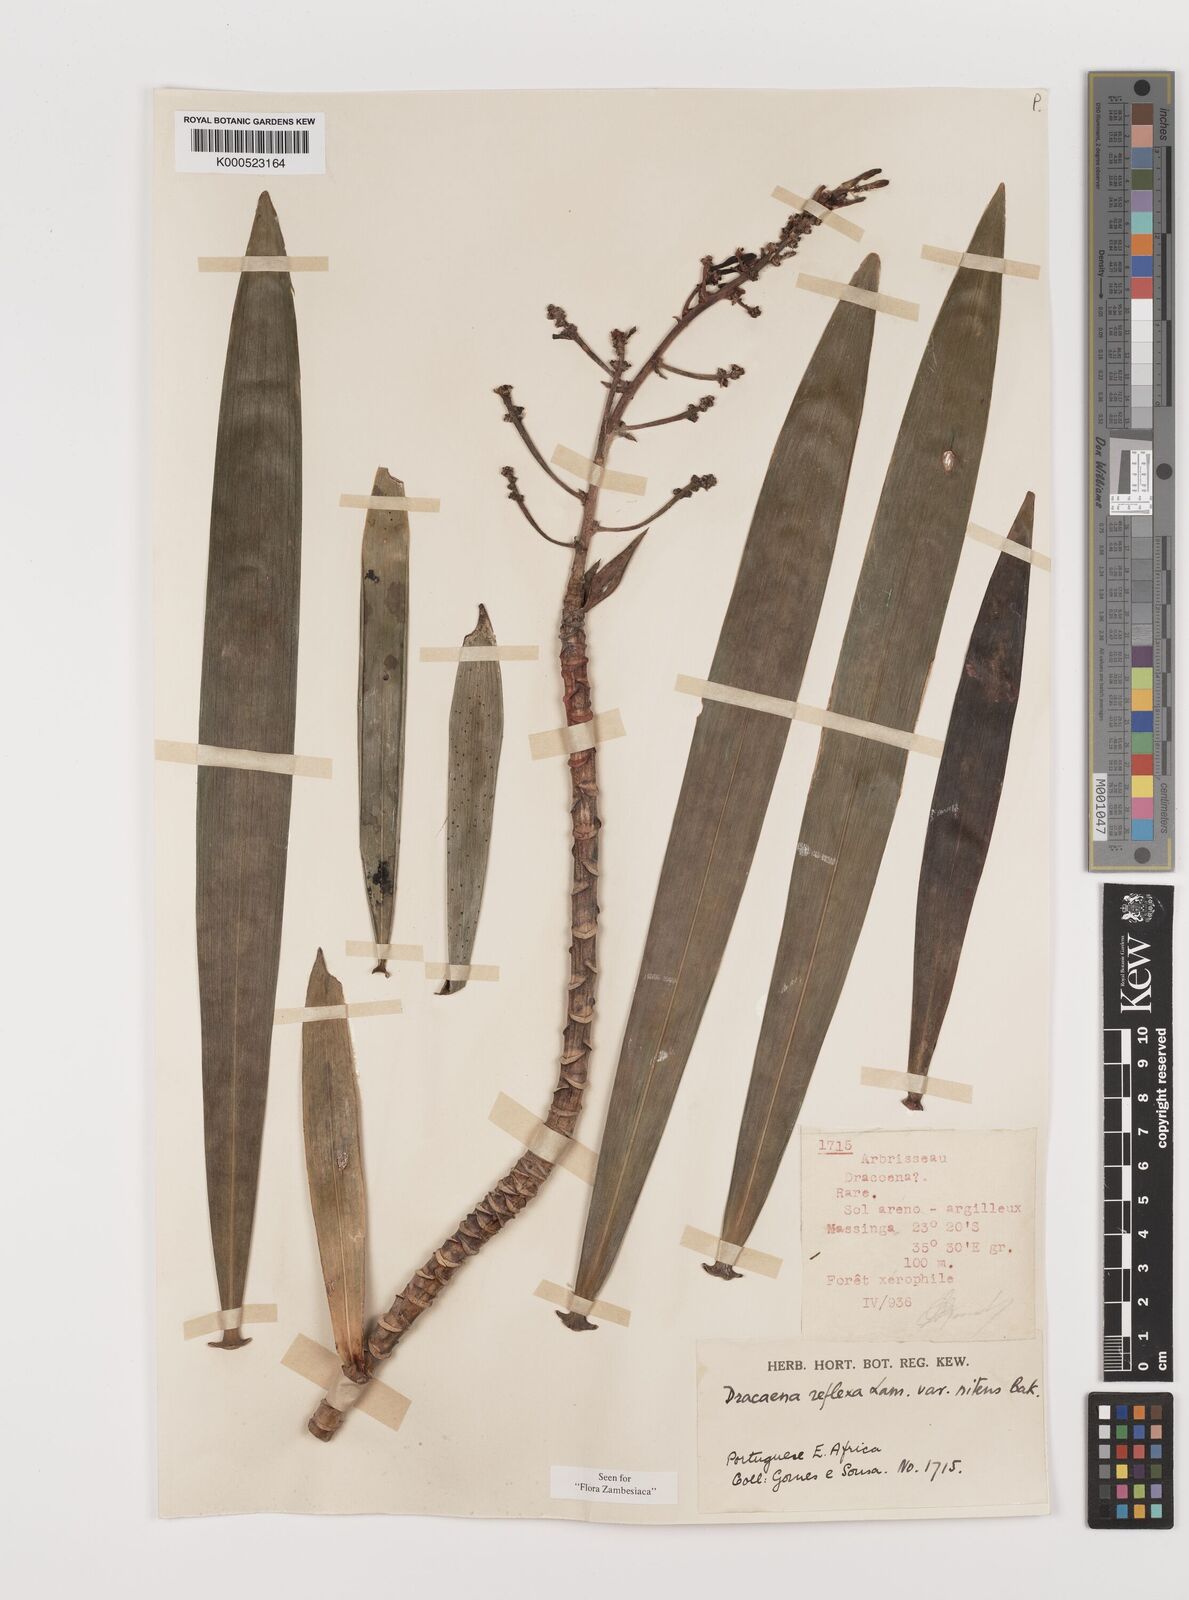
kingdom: Plantae
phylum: Tracheophyta
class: Liliopsida
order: Asparagales
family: Asparagaceae
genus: Dracaena
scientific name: Dracaena usambarensis
